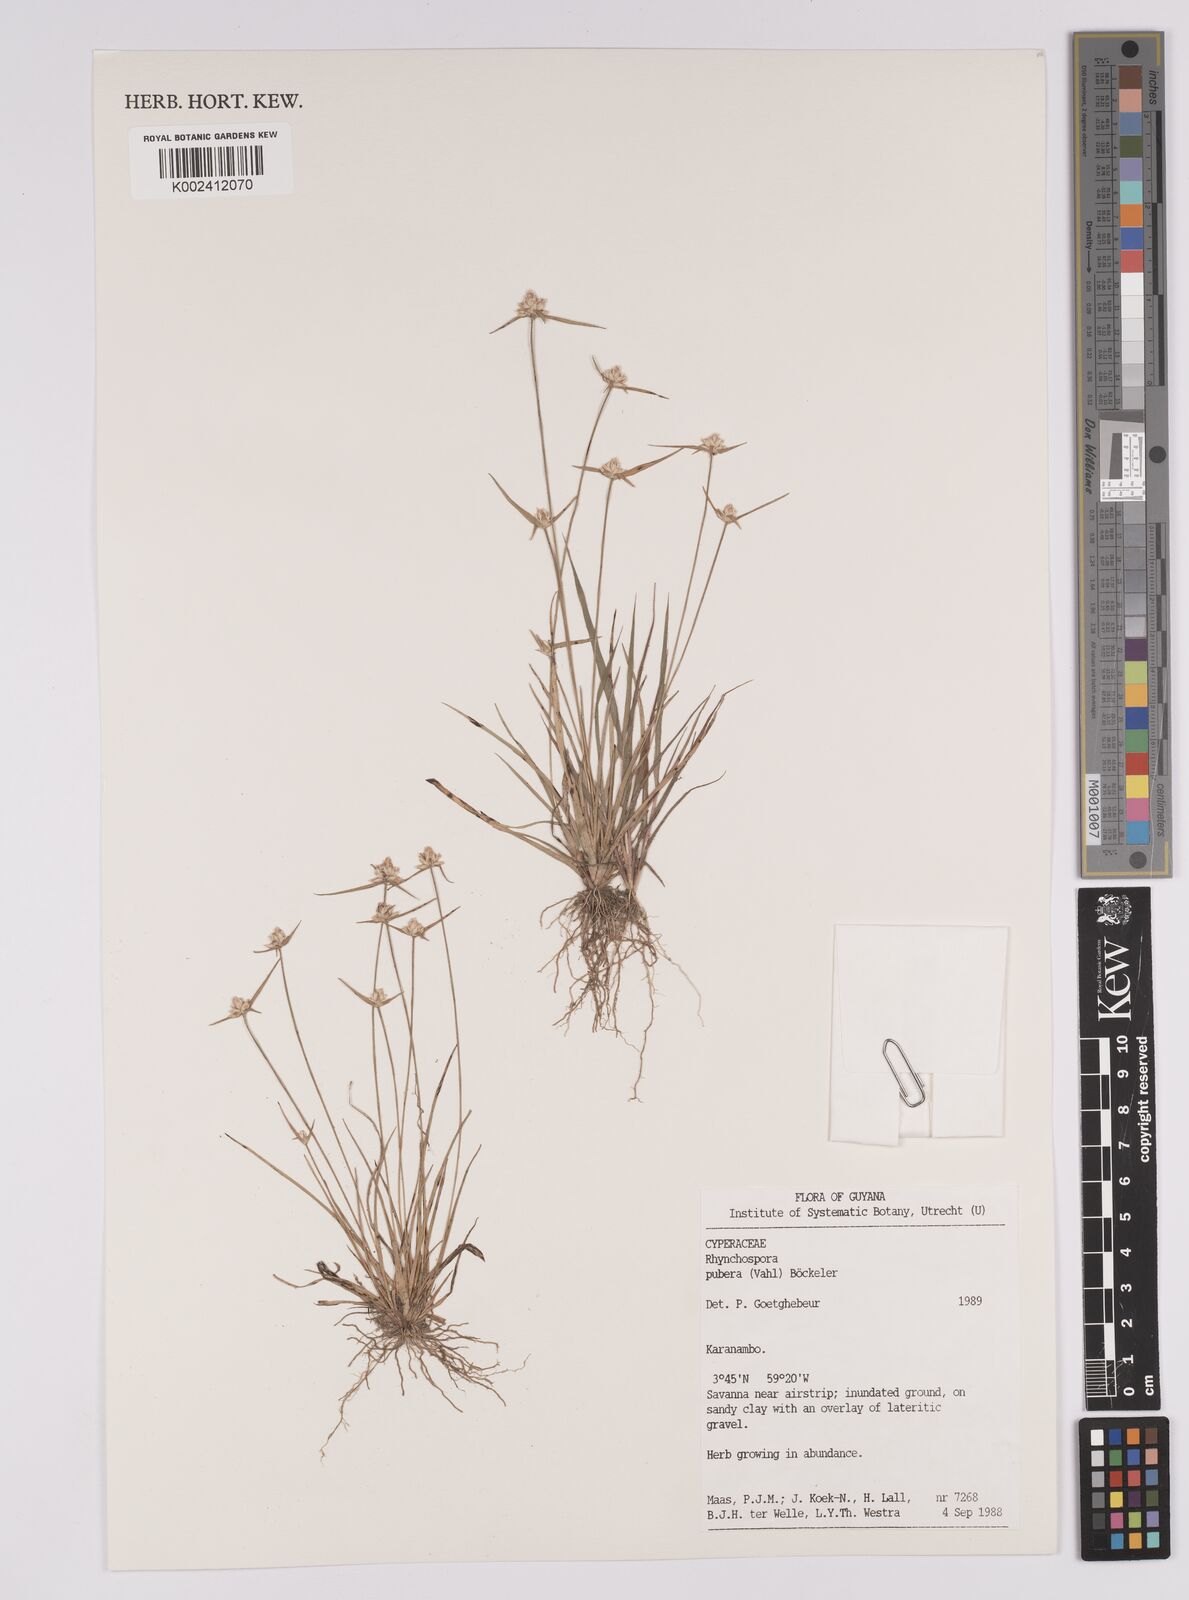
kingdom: Plantae
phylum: Tracheophyta
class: Liliopsida
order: Poales
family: Cyperaceae
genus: Rhynchospora
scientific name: Rhynchospora pubera
